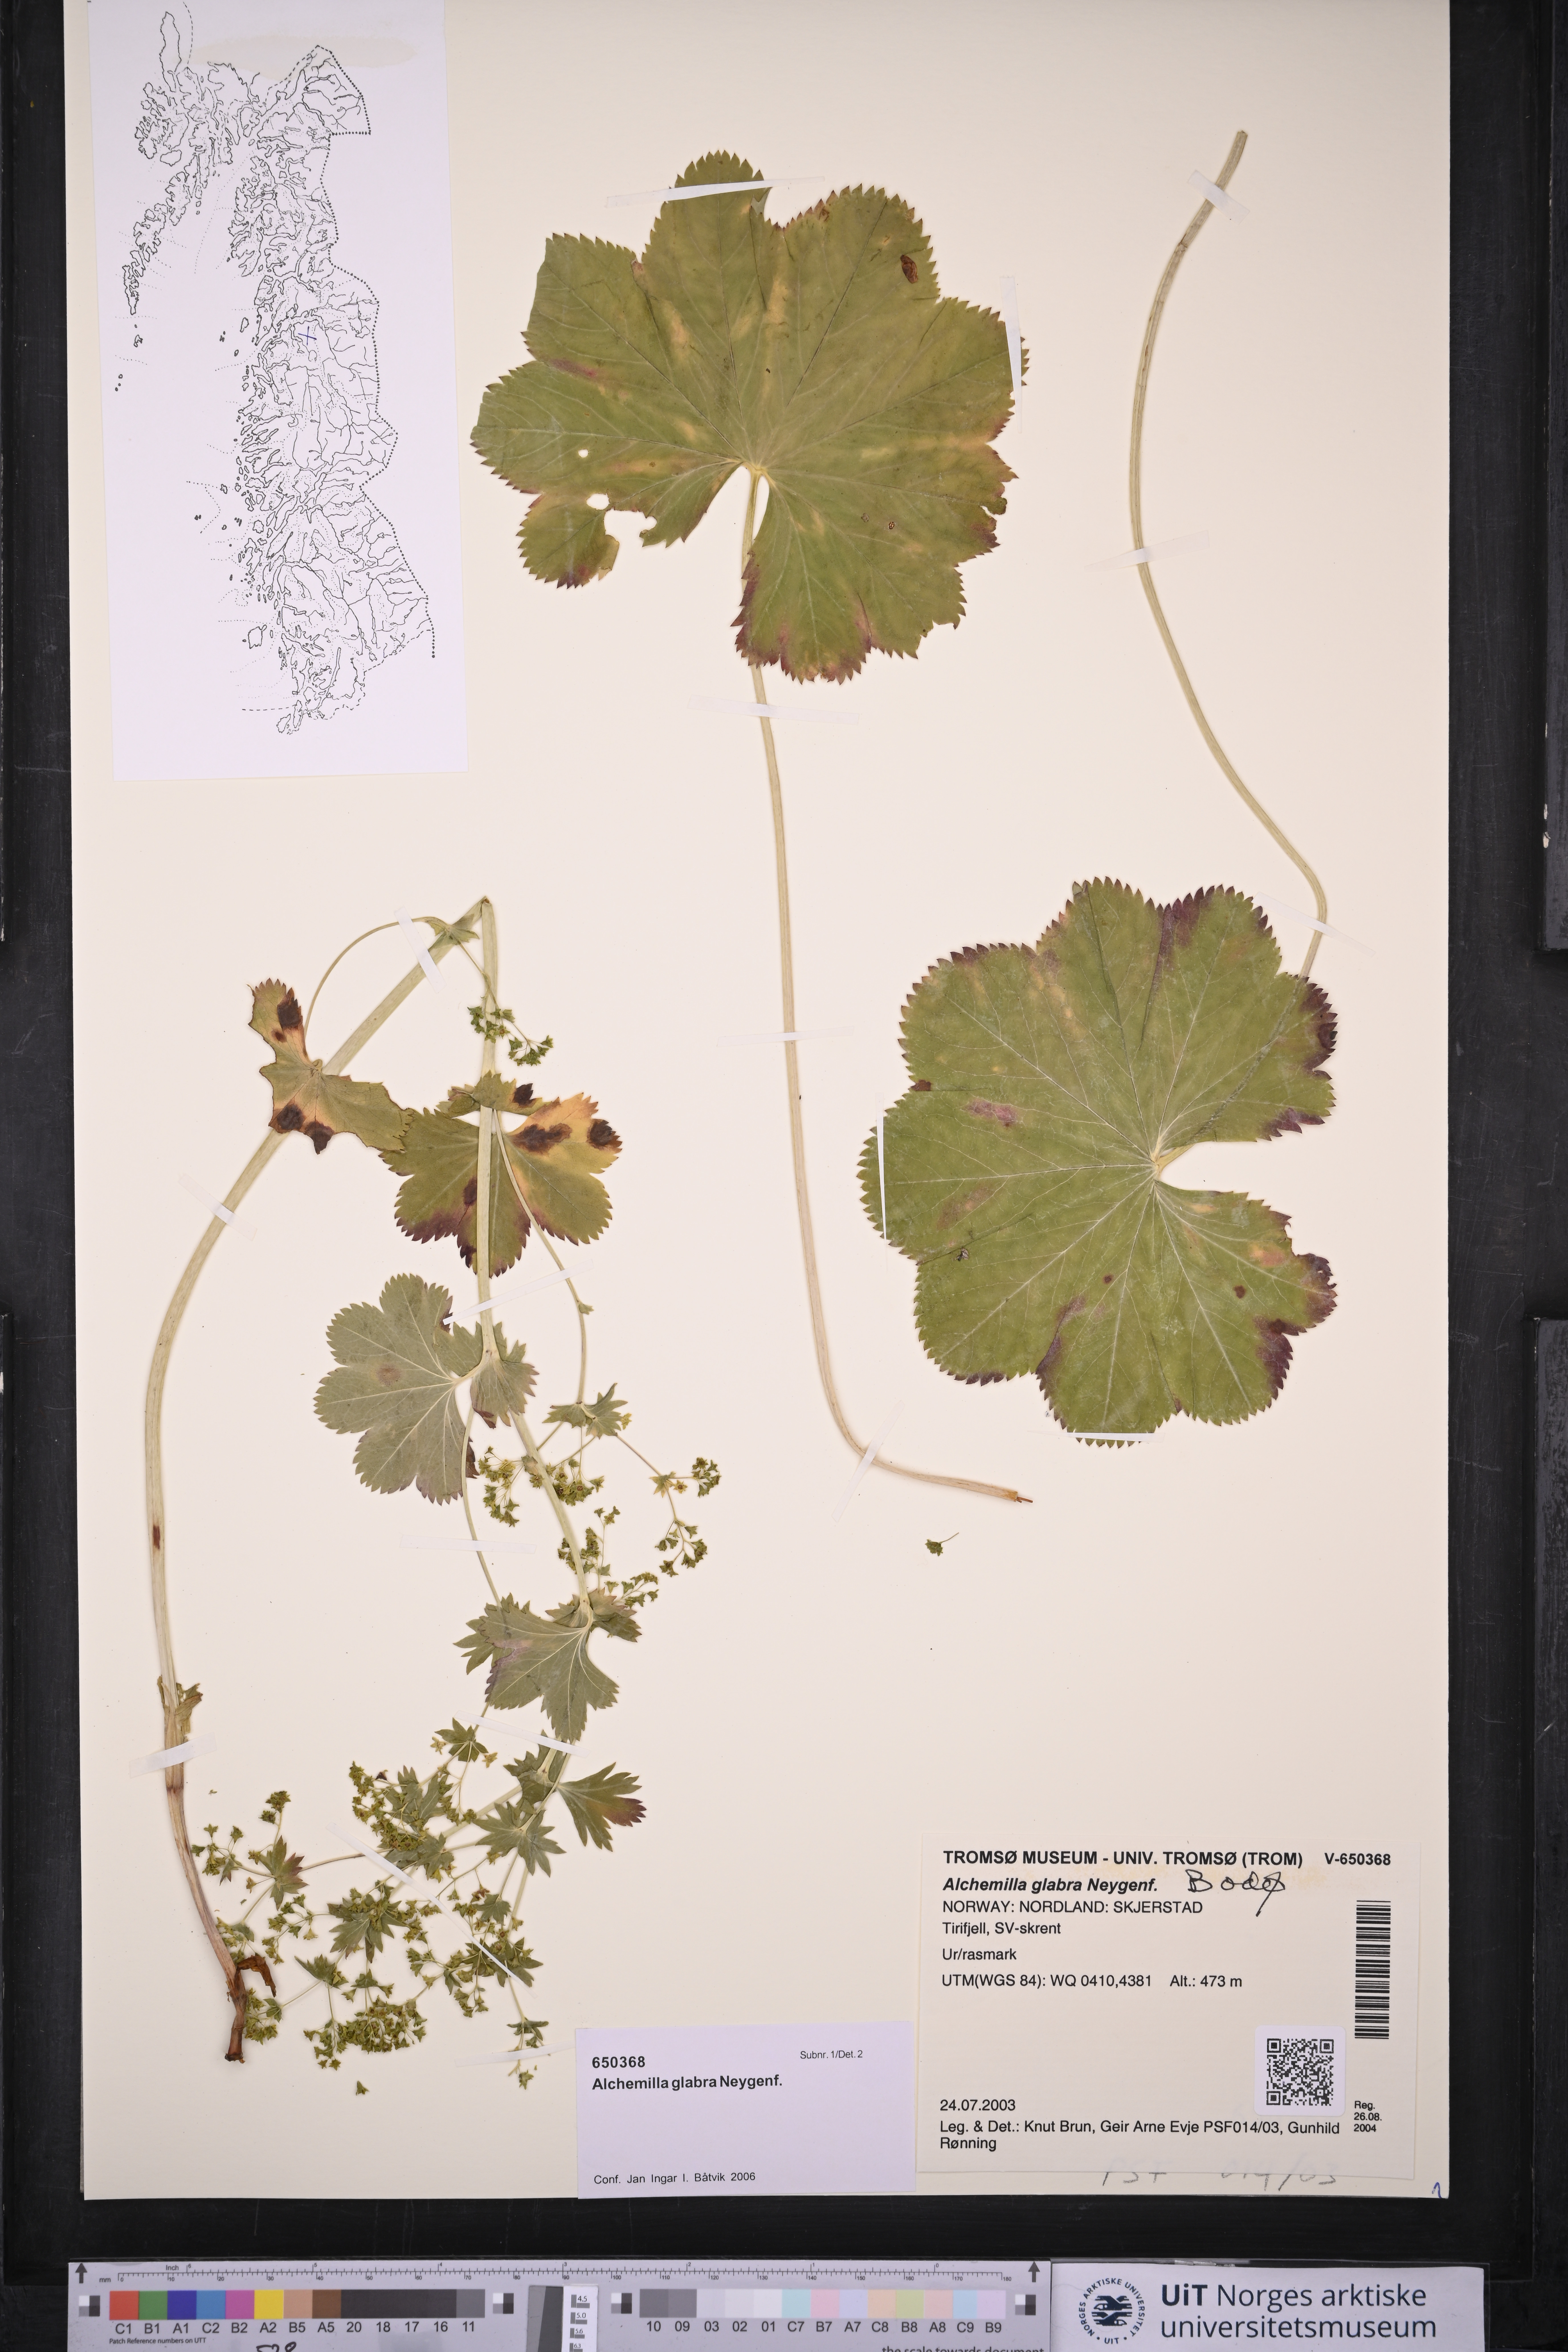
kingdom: Plantae
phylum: Tracheophyta
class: Magnoliopsida
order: Rosales
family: Rosaceae
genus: Alchemilla
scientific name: Alchemilla glabra
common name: Smooth lady's-mantle
